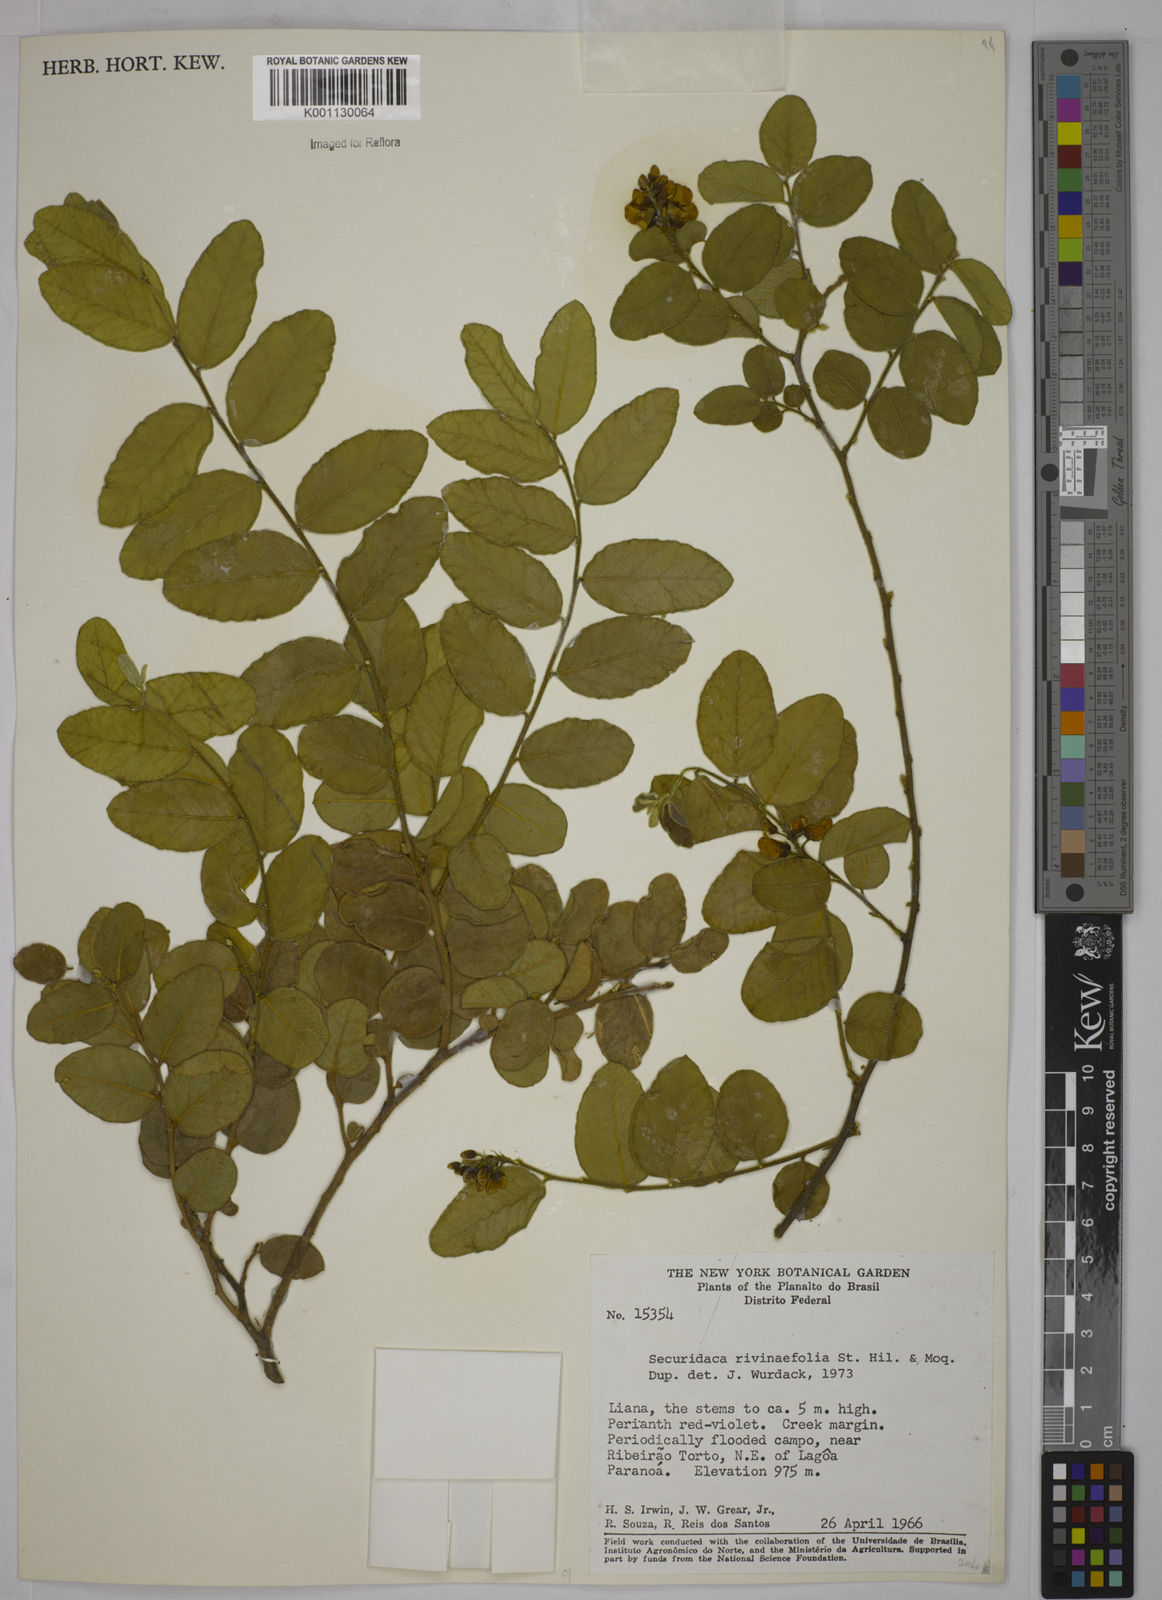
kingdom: Plantae
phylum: Tracheophyta
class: Magnoliopsida
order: Fabales
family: Polygalaceae
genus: Securidaca
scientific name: Securidaca rivinifolia
